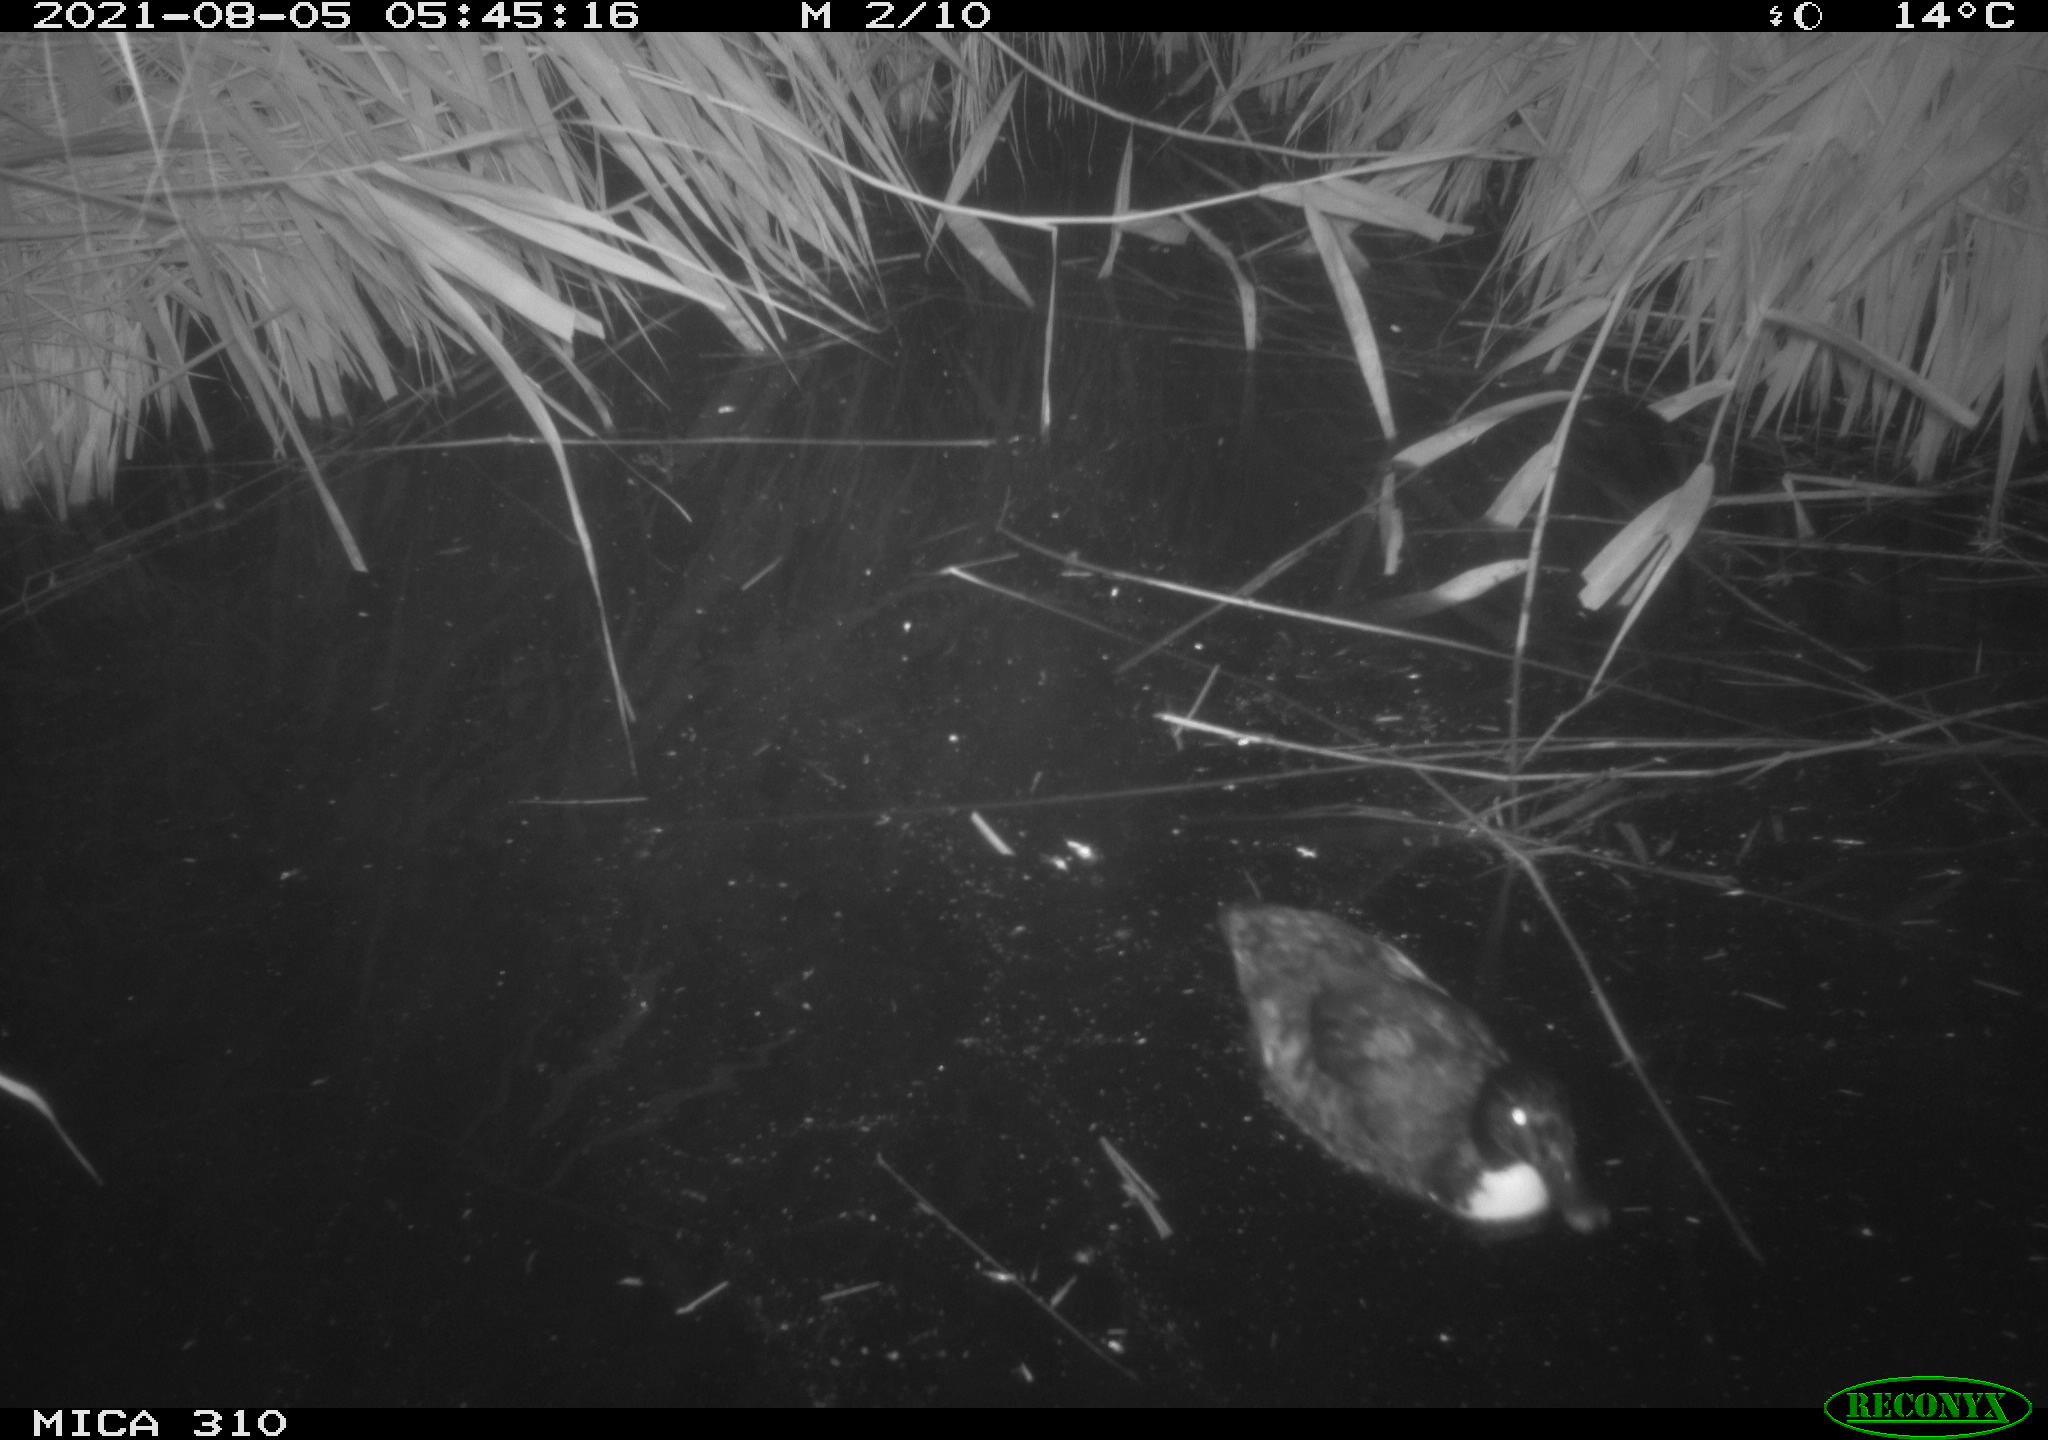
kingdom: Animalia
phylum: Chordata
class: Aves
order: Anseriformes
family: Anatidae
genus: Anas
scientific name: Anas platyrhynchos
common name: Mallard
